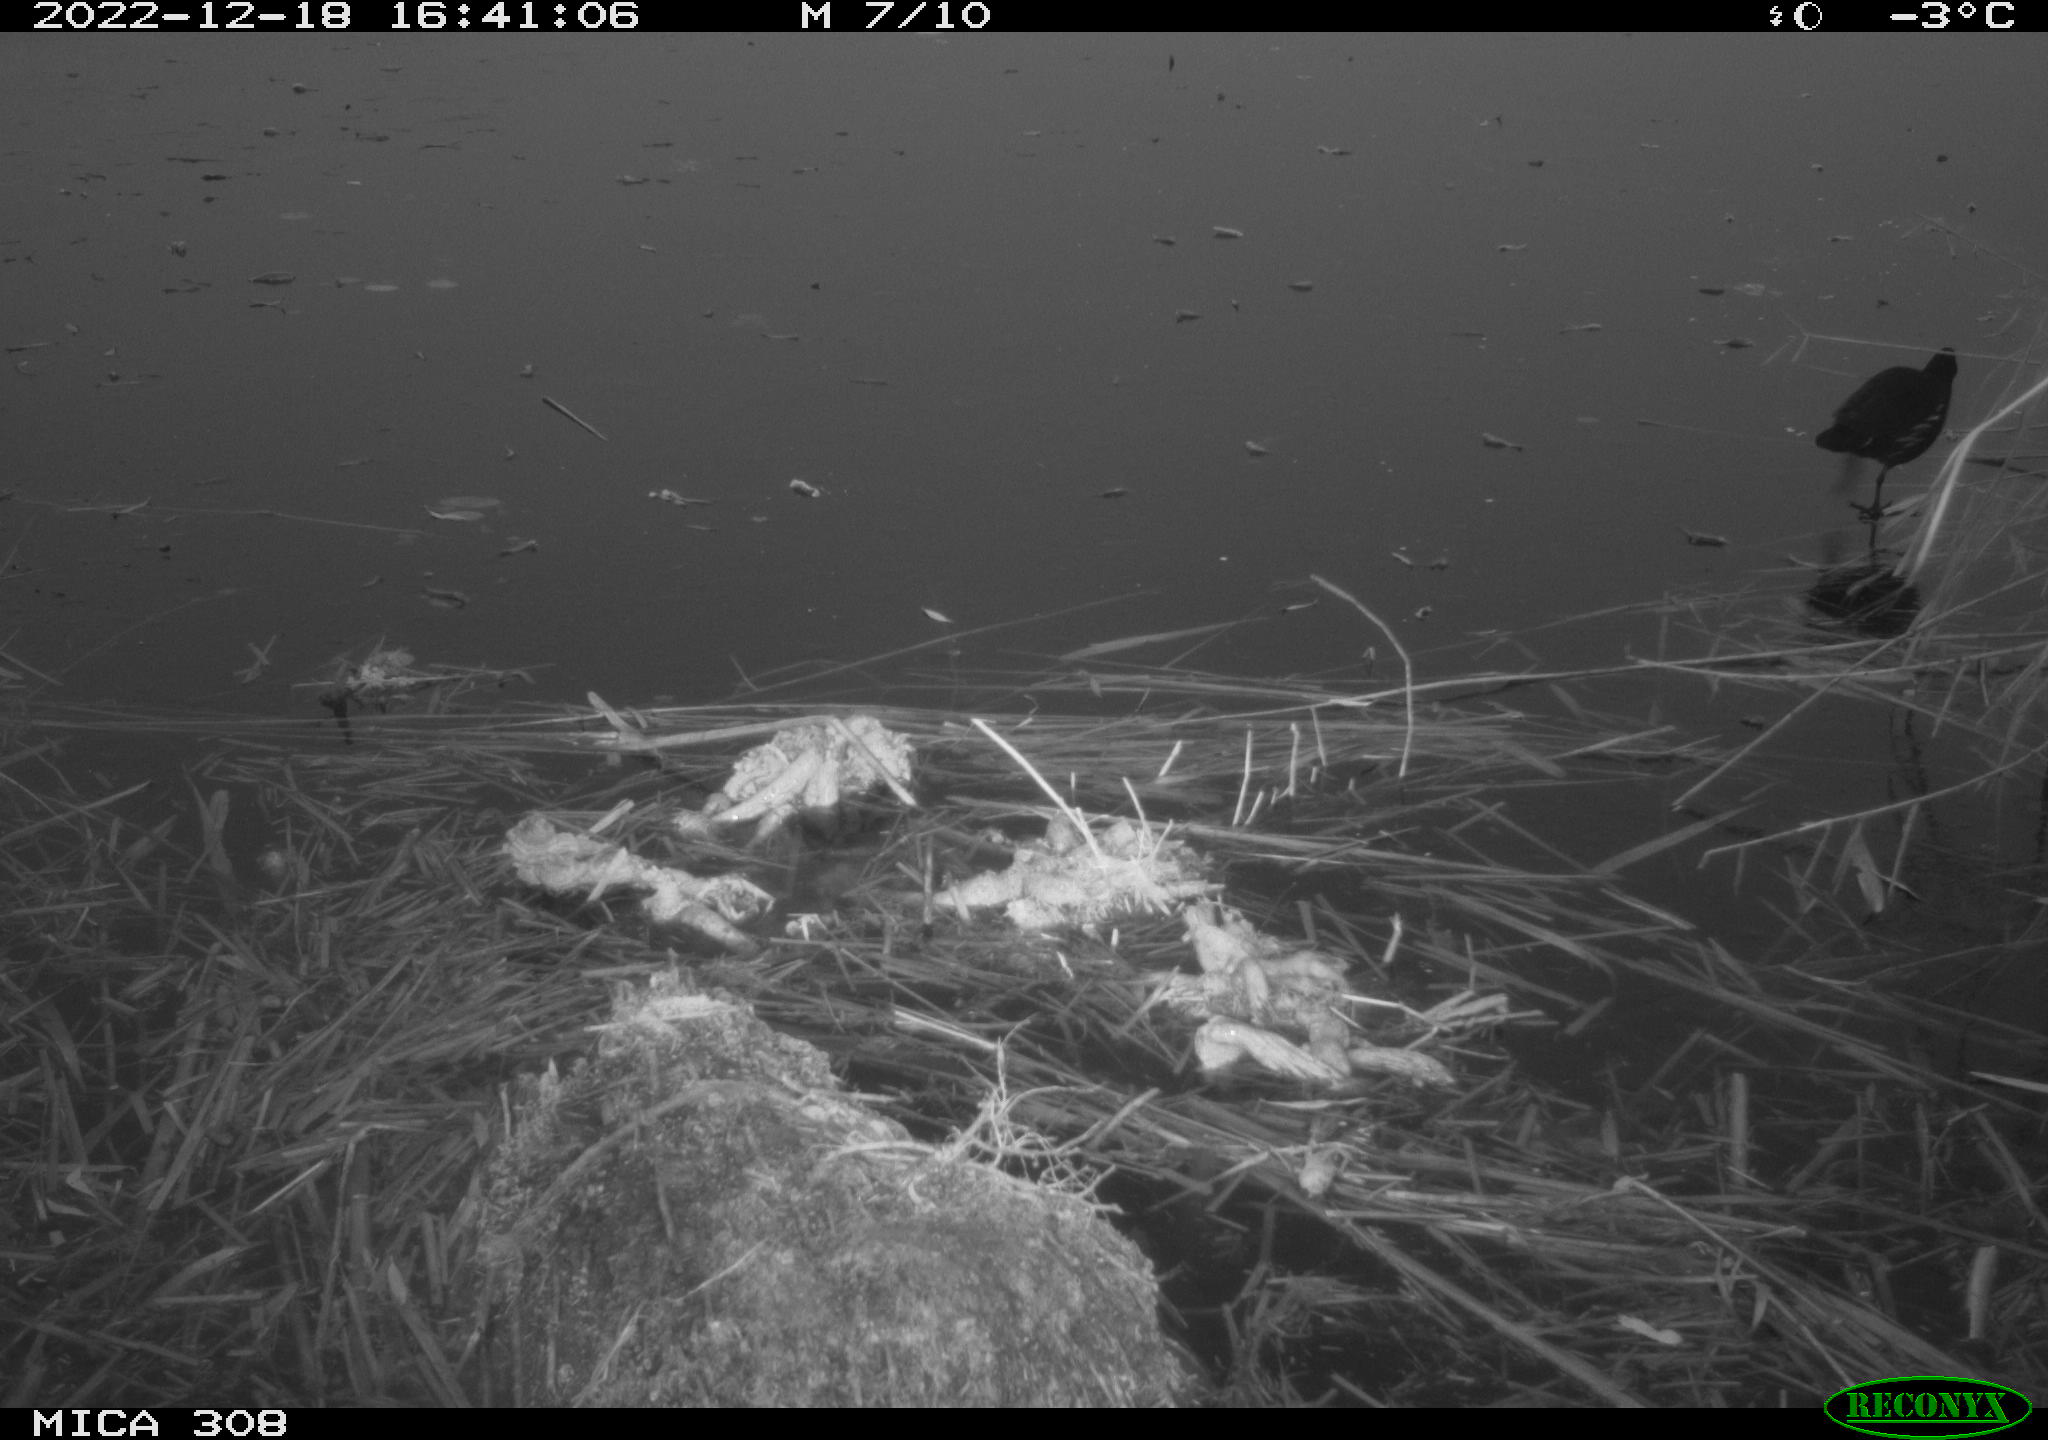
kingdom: Animalia
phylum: Chordata
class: Aves
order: Gruiformes
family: Rallidae
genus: Gallinula
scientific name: Gallinula chloropus
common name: Common moorhen
